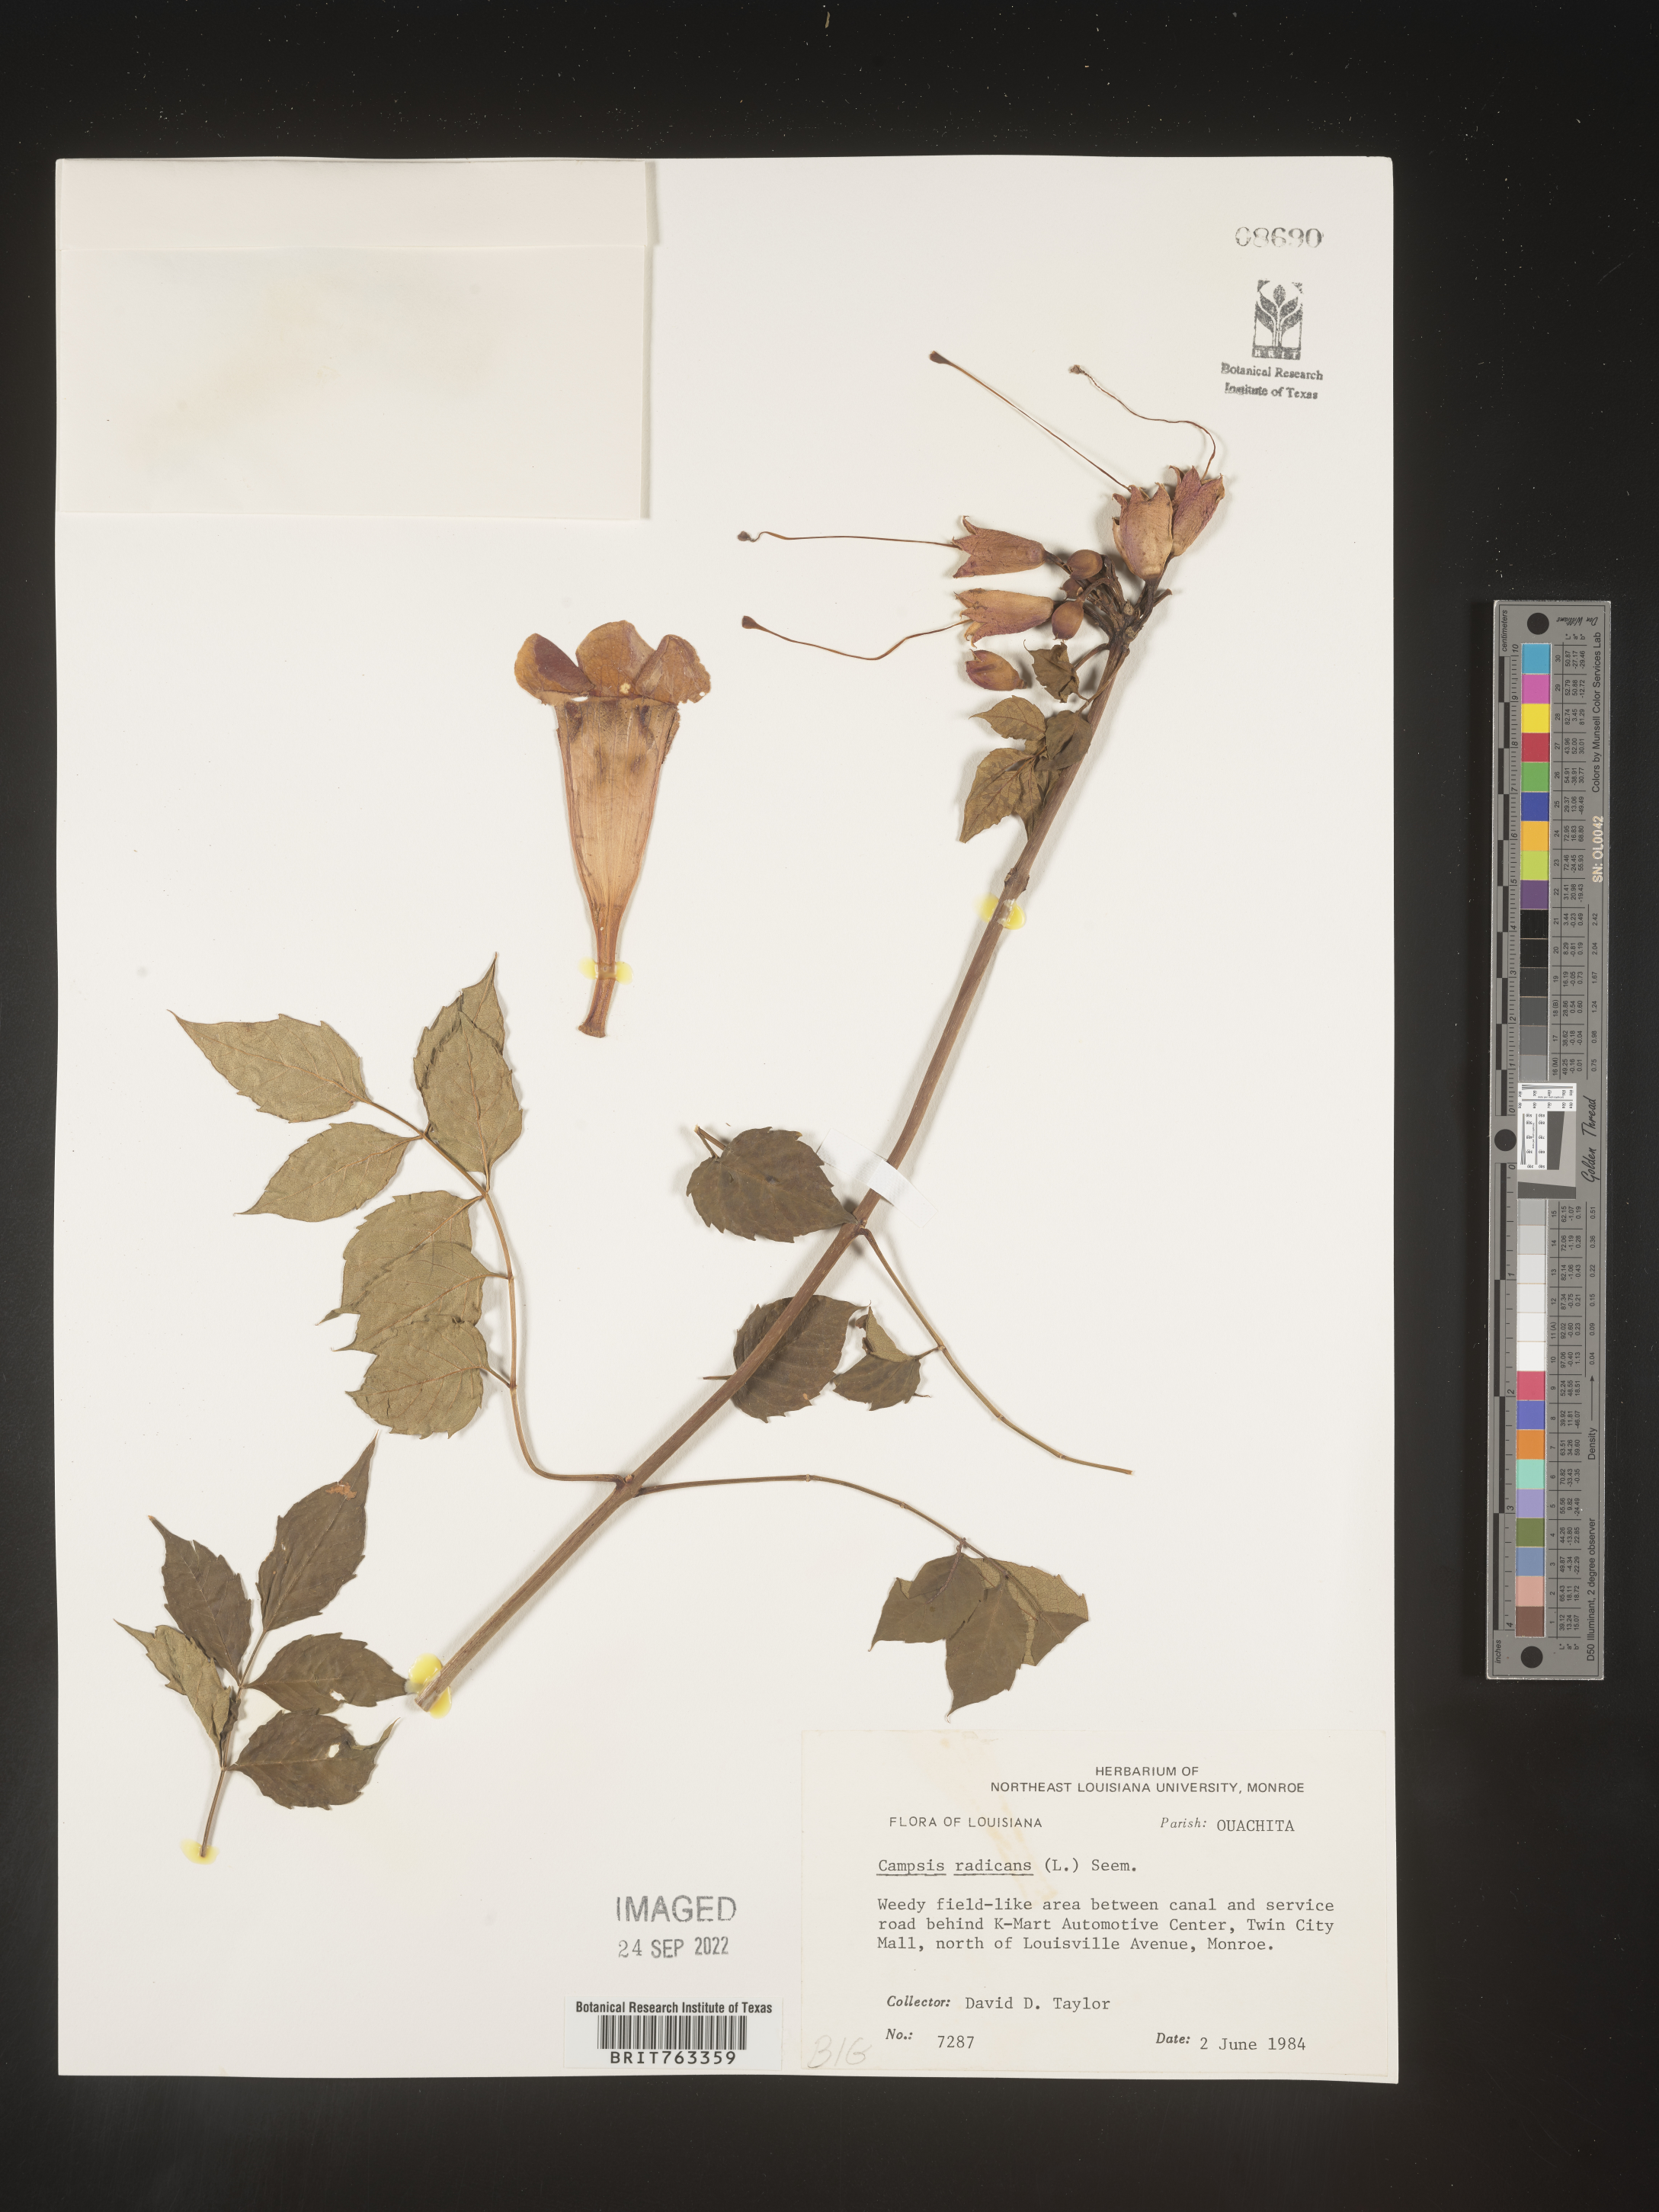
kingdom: Plantae
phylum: Tracheophyta
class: Magnoliopsida
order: Lamiales
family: Bignoniaceae
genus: Campsis
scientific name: Campsis radicans
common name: Trumpet-creeper
